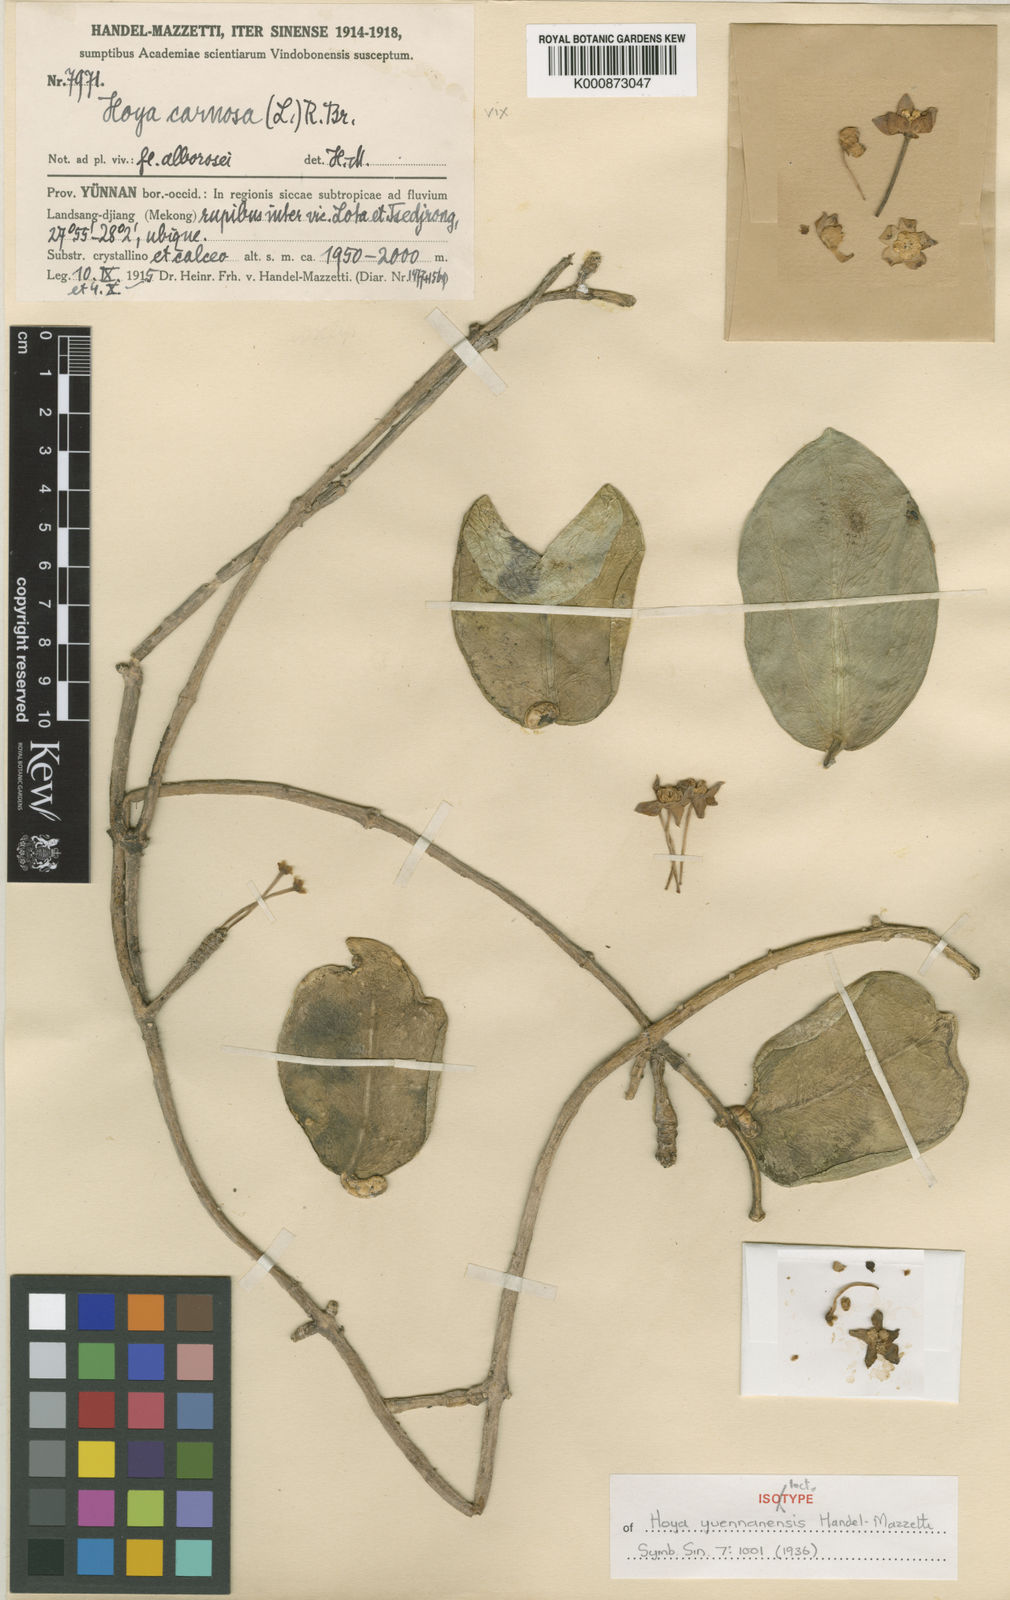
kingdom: Plantae
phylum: Tracheophyta
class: Magnoliopsida
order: Gentianales
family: Apocynaceae
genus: Hoya
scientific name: Hoya yuennanensis
